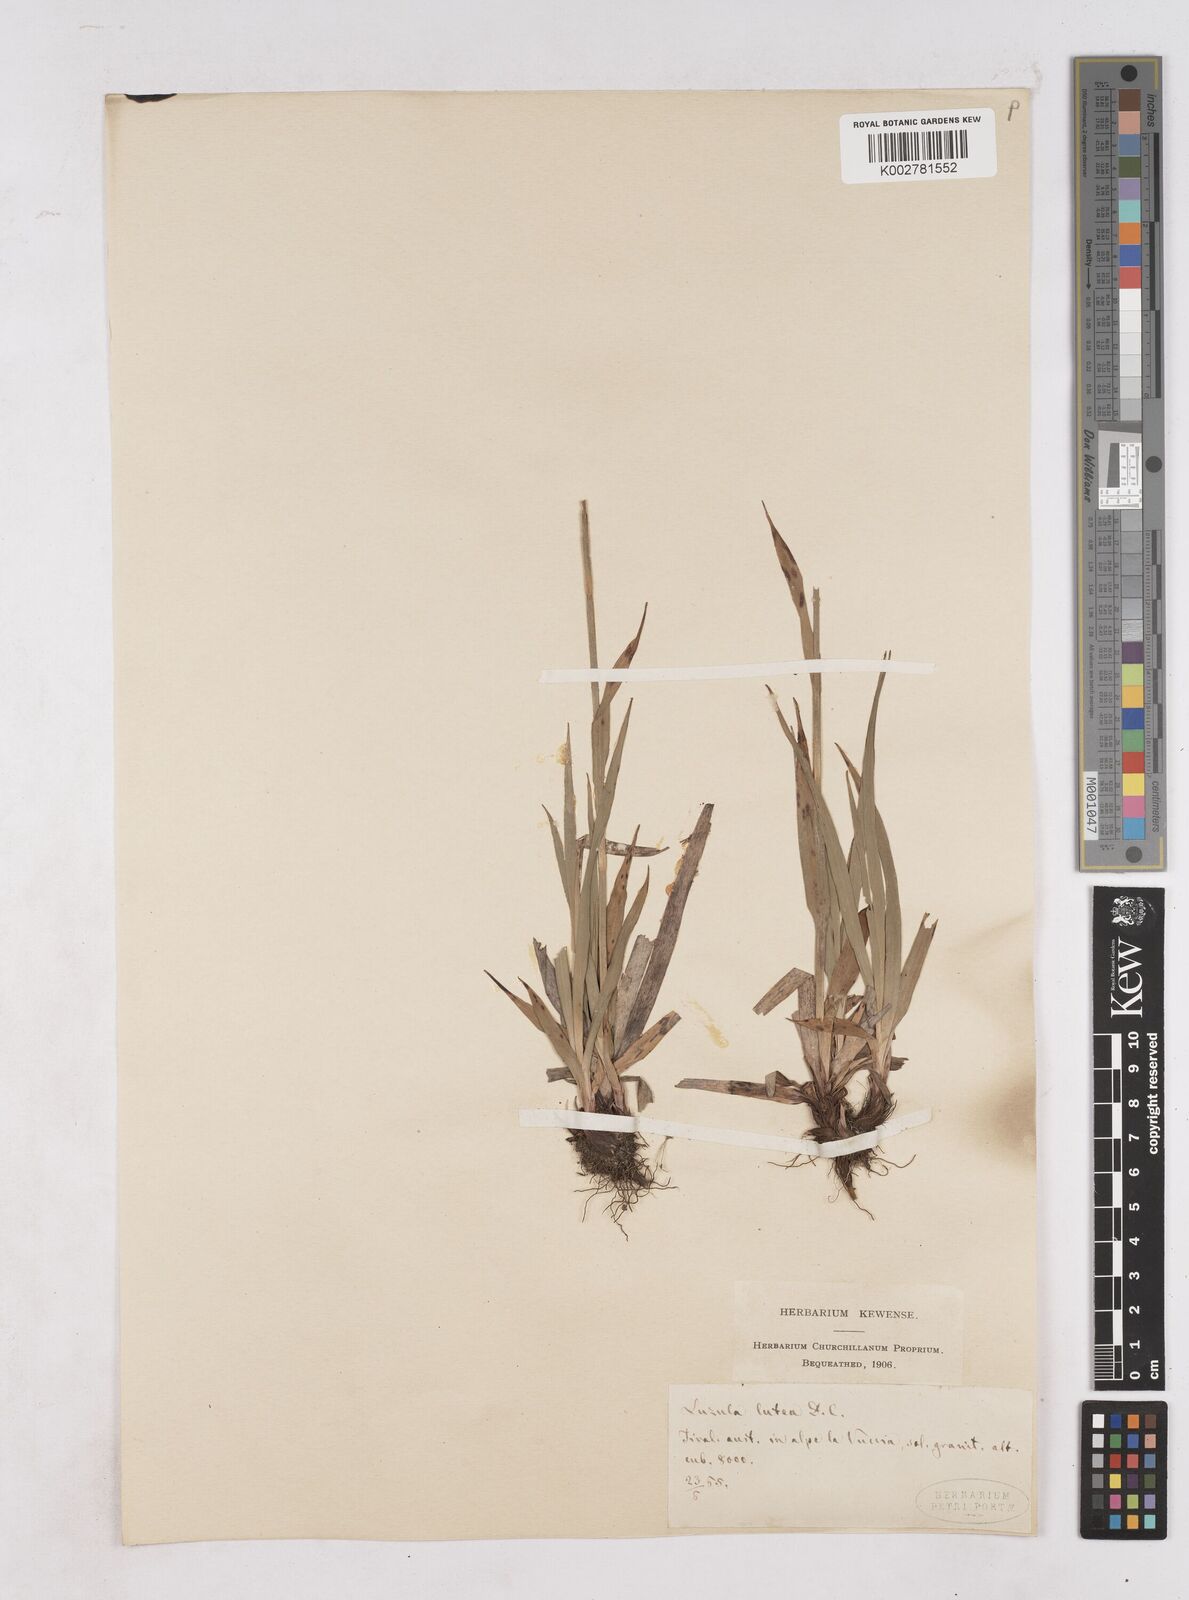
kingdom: Plantae
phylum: Tracheophyta
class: Liliopsida
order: Poales
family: Juncaceae
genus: Luzula
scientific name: Luzula lutea
